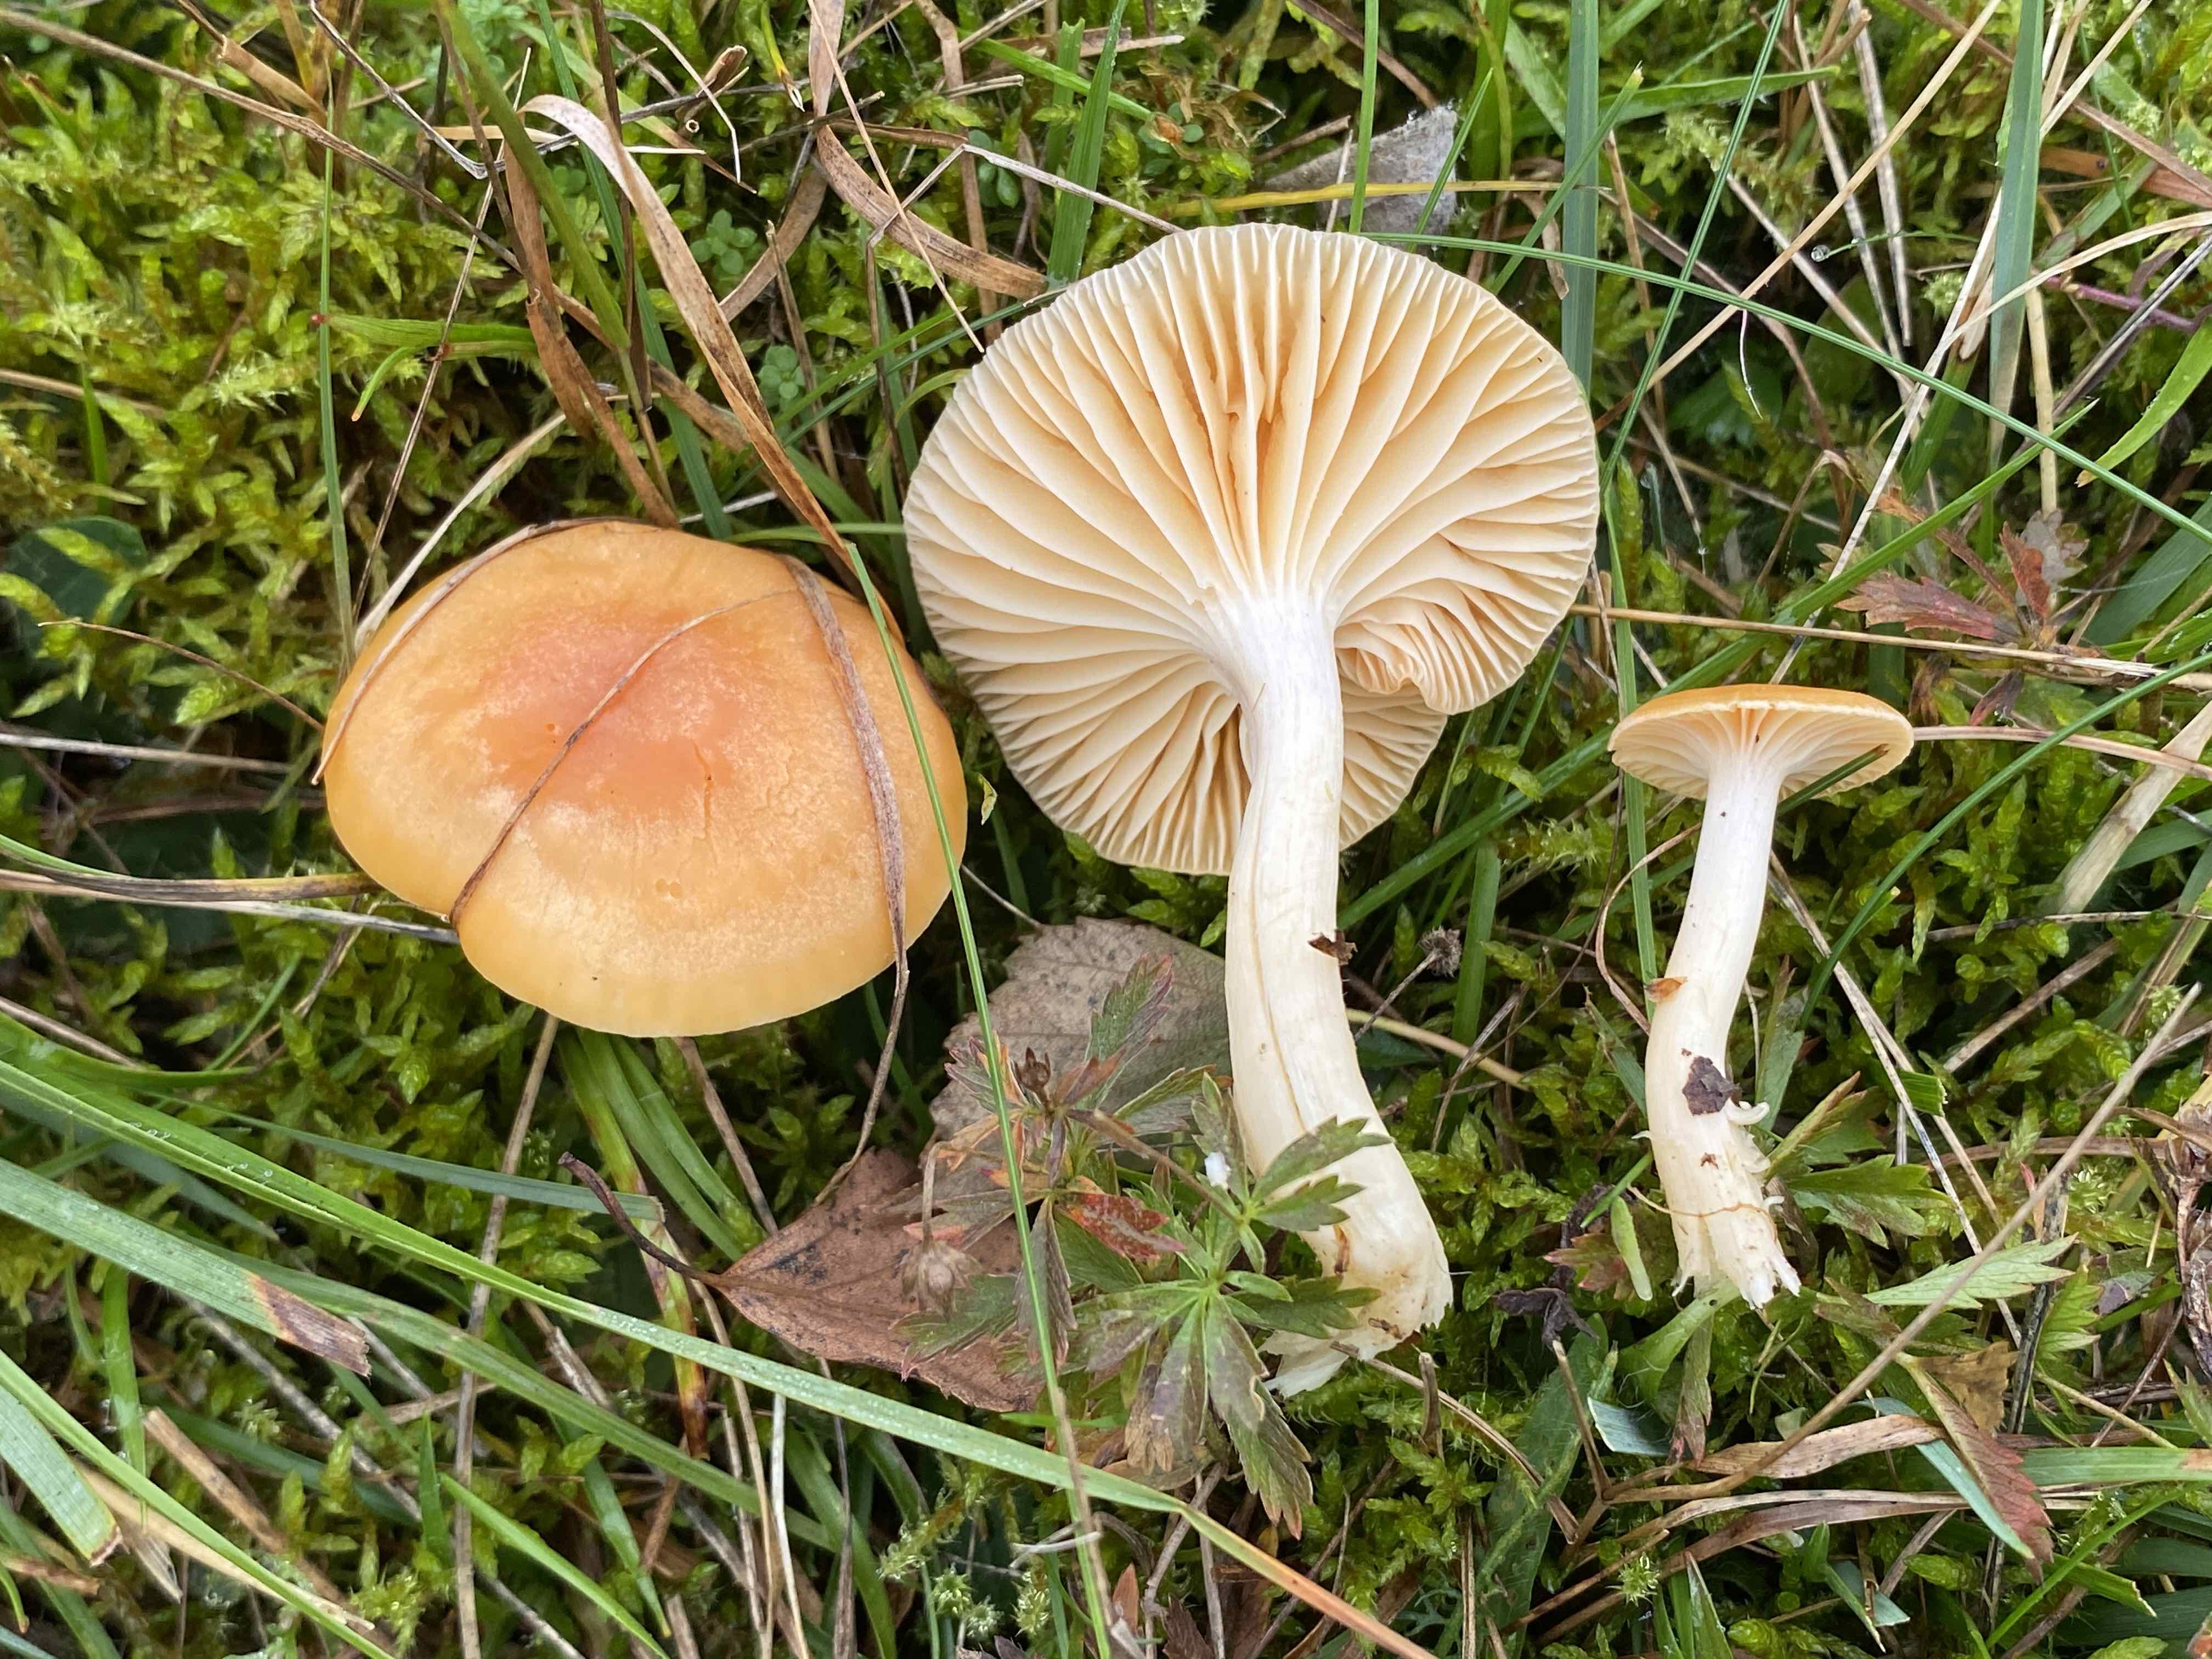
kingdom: Fungi
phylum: Basidiomycota
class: Agaricomycetes
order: Agaricales
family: Hygrophoraceae
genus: Cuphophyllus
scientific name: Cuphophyllus pratensis
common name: eng-vokshat
